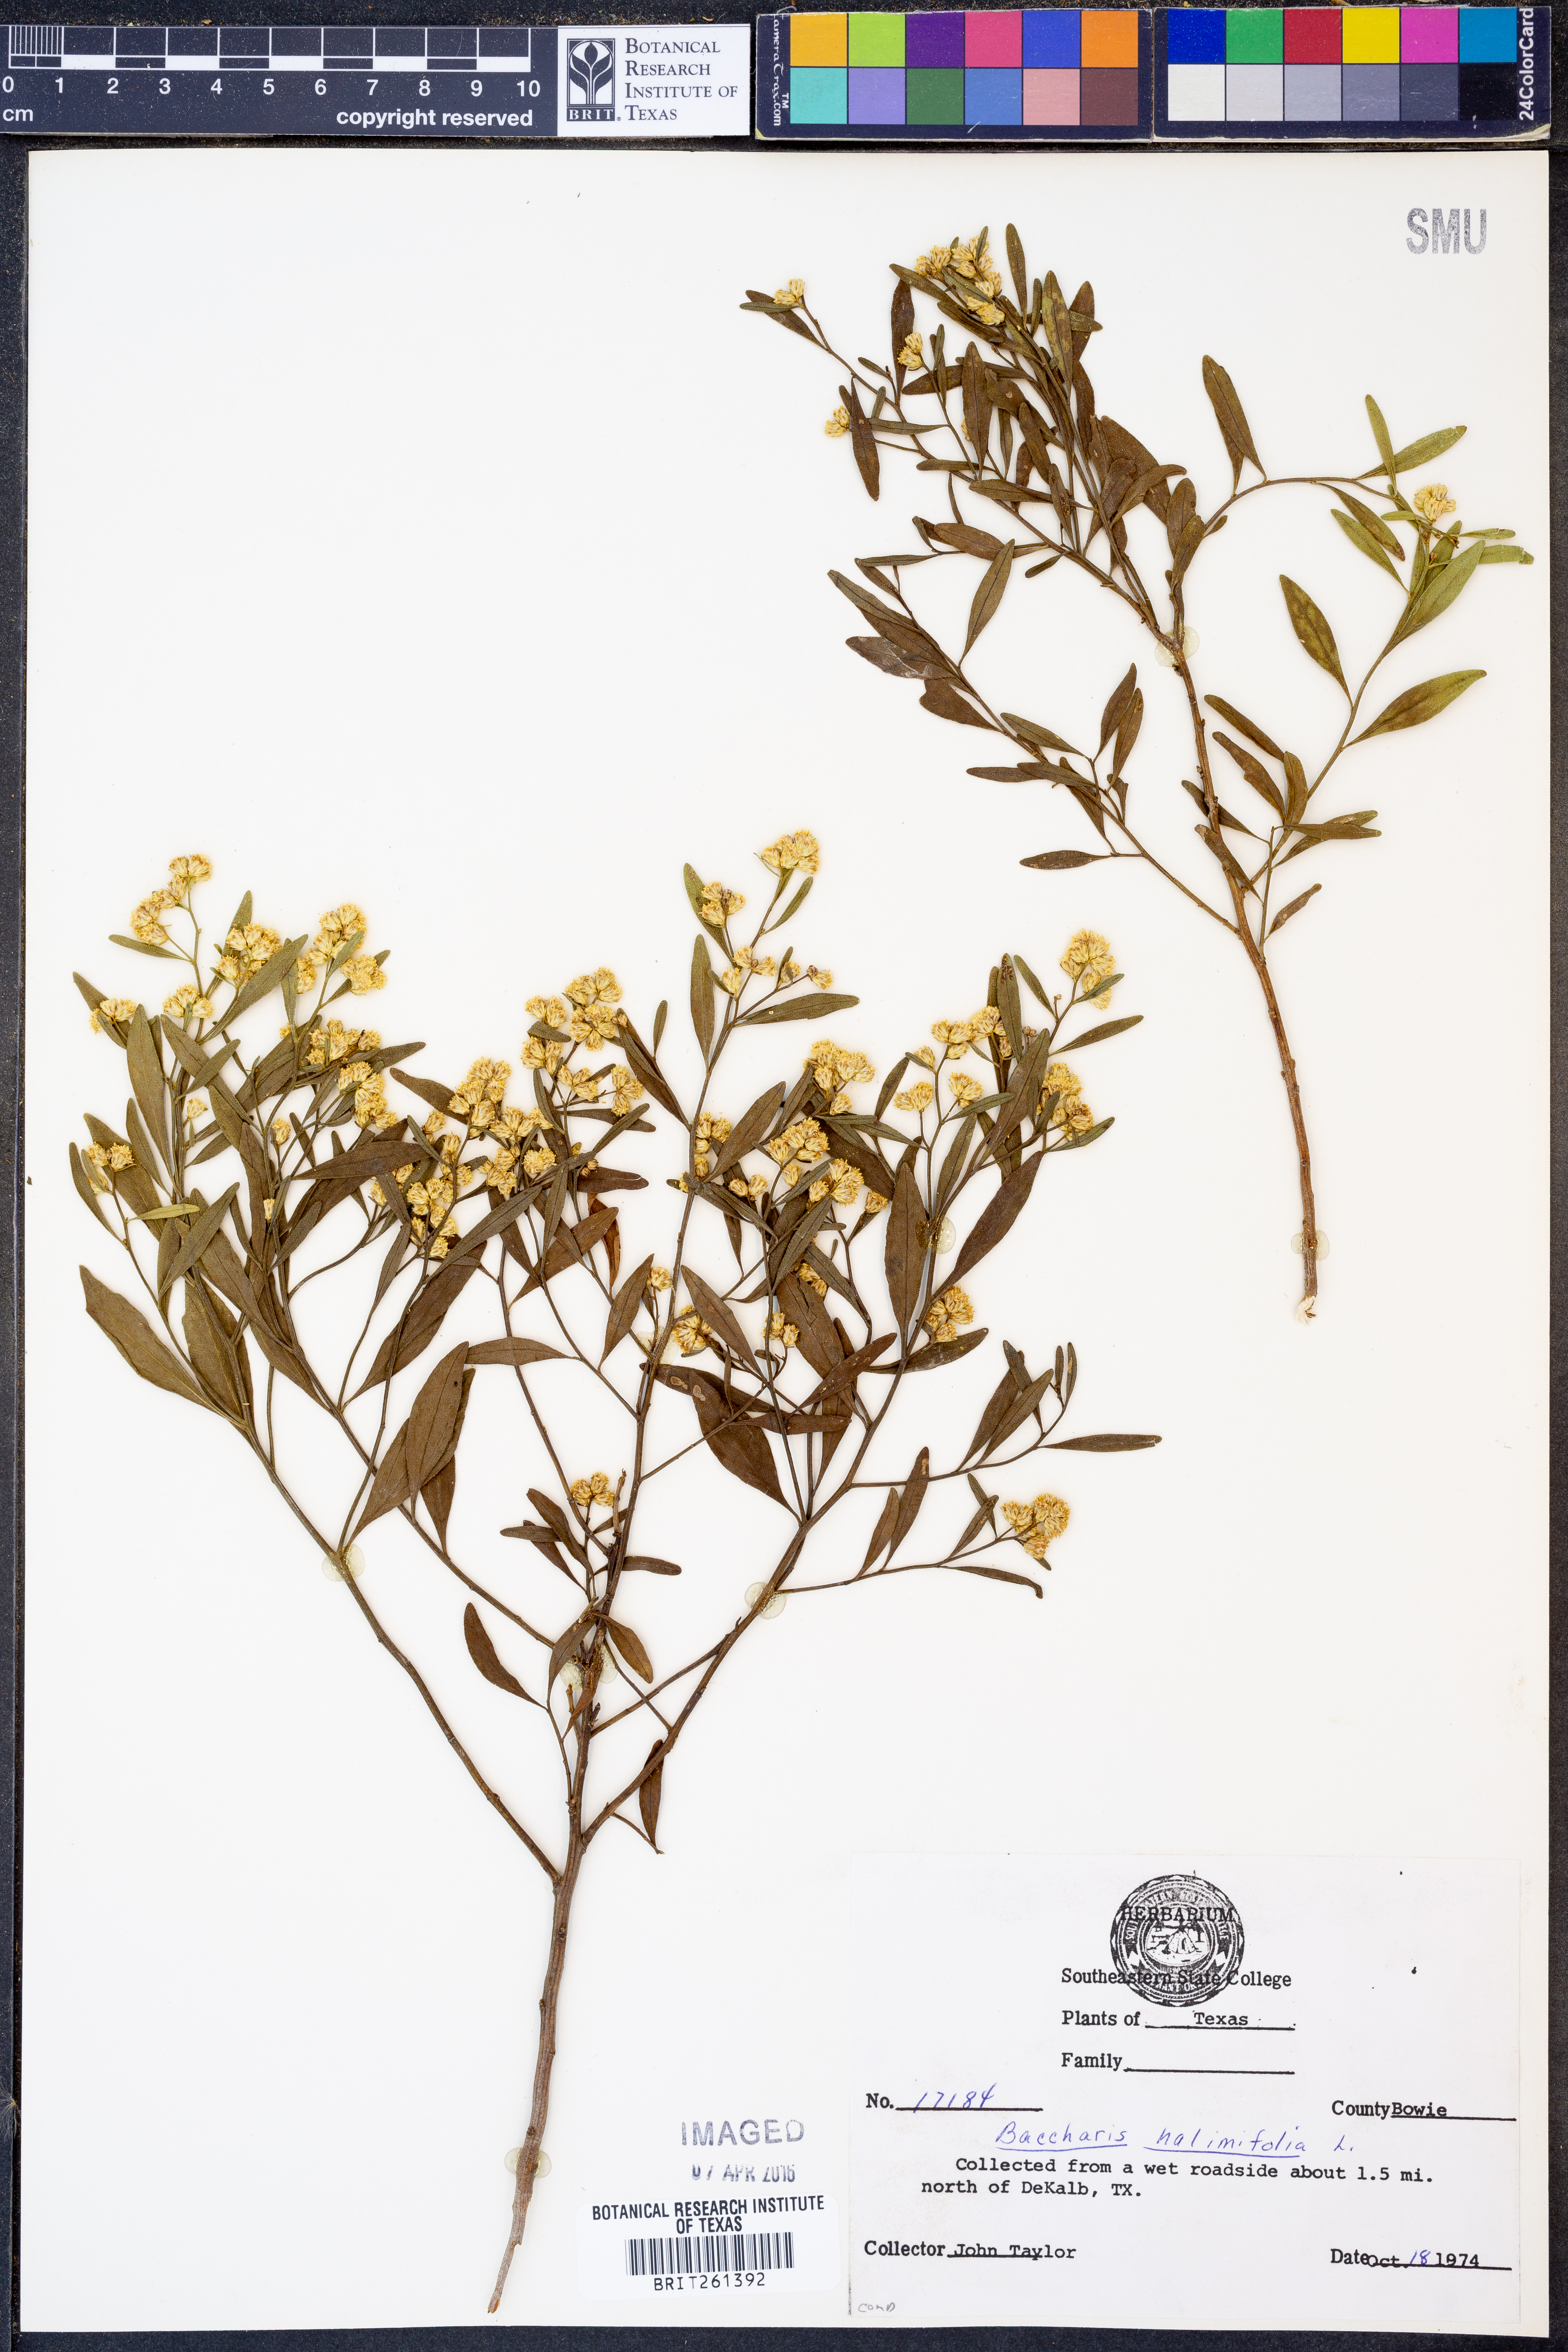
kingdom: Plantae
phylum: Tracheophyta
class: Magnoliopsida
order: Asterales
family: Asteraceae
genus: Nidorella
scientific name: Nidorella ivifolia
